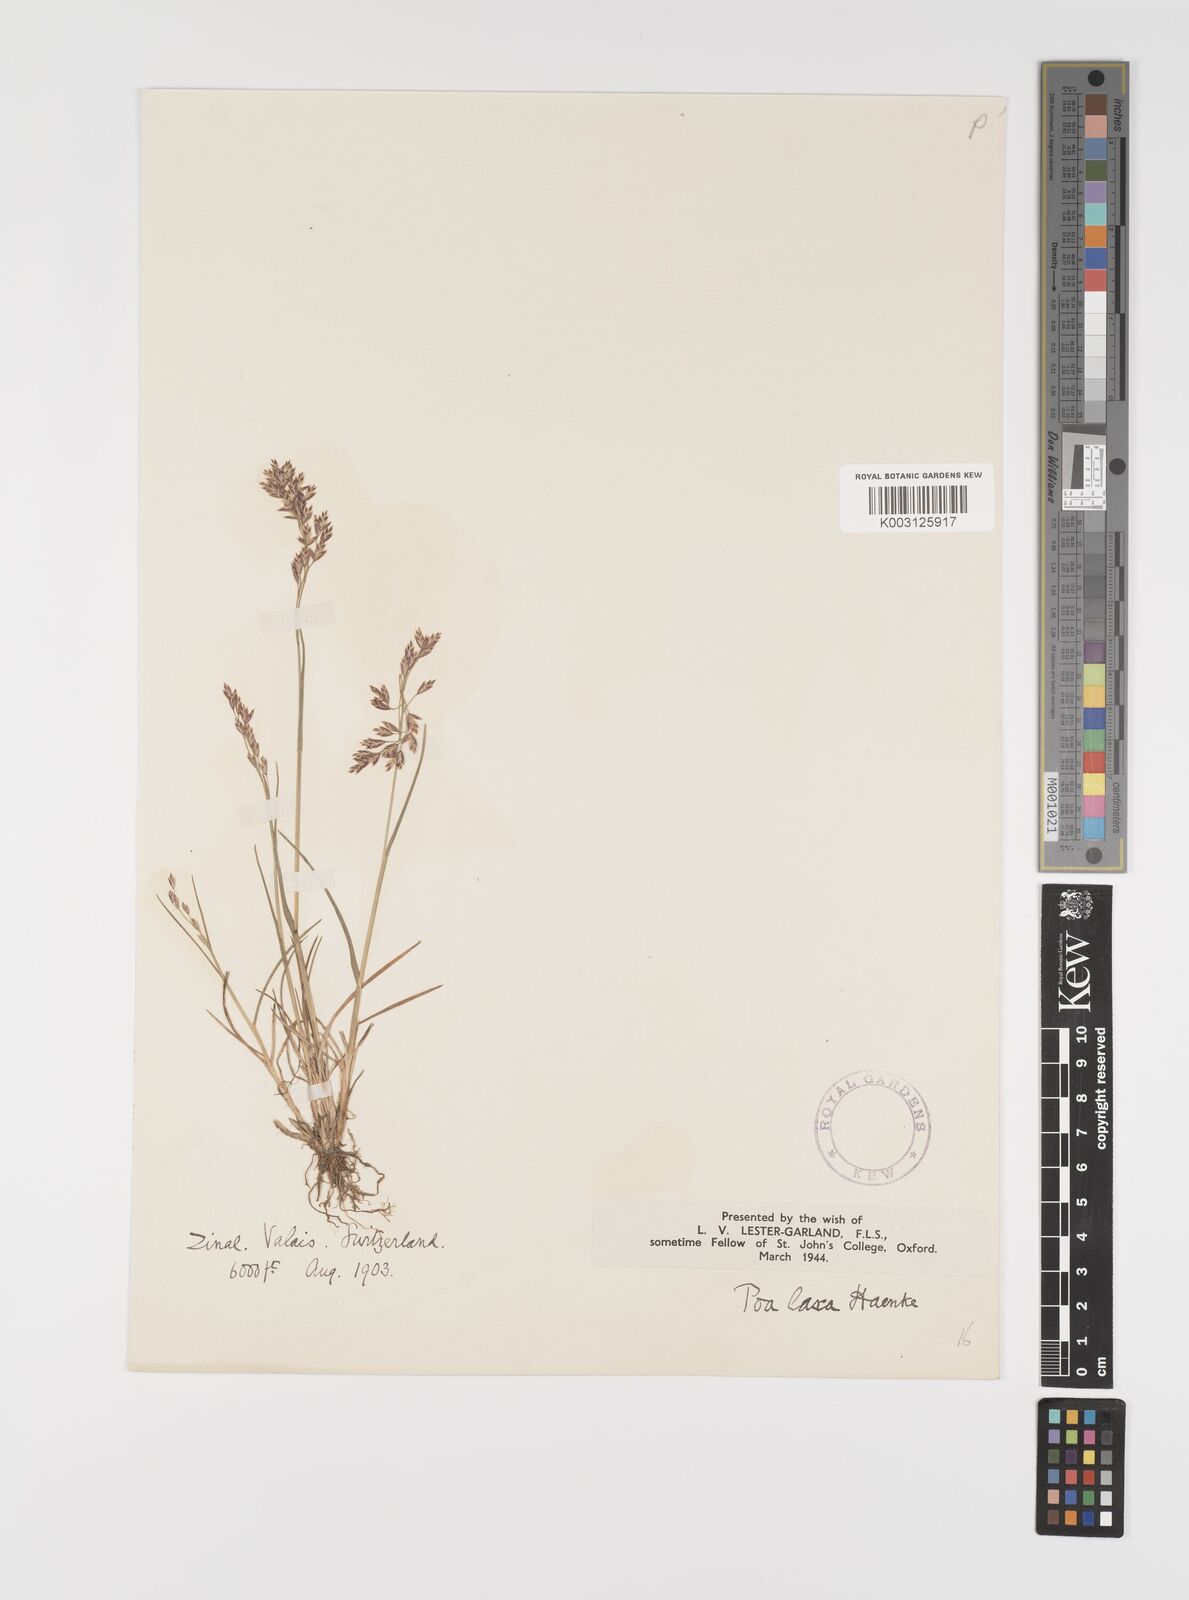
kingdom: Plantae
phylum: Tracheophyta
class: Liliopsida
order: Poales
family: Poaceae
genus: Poa
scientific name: Poa laxa
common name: Lax bluegrass
